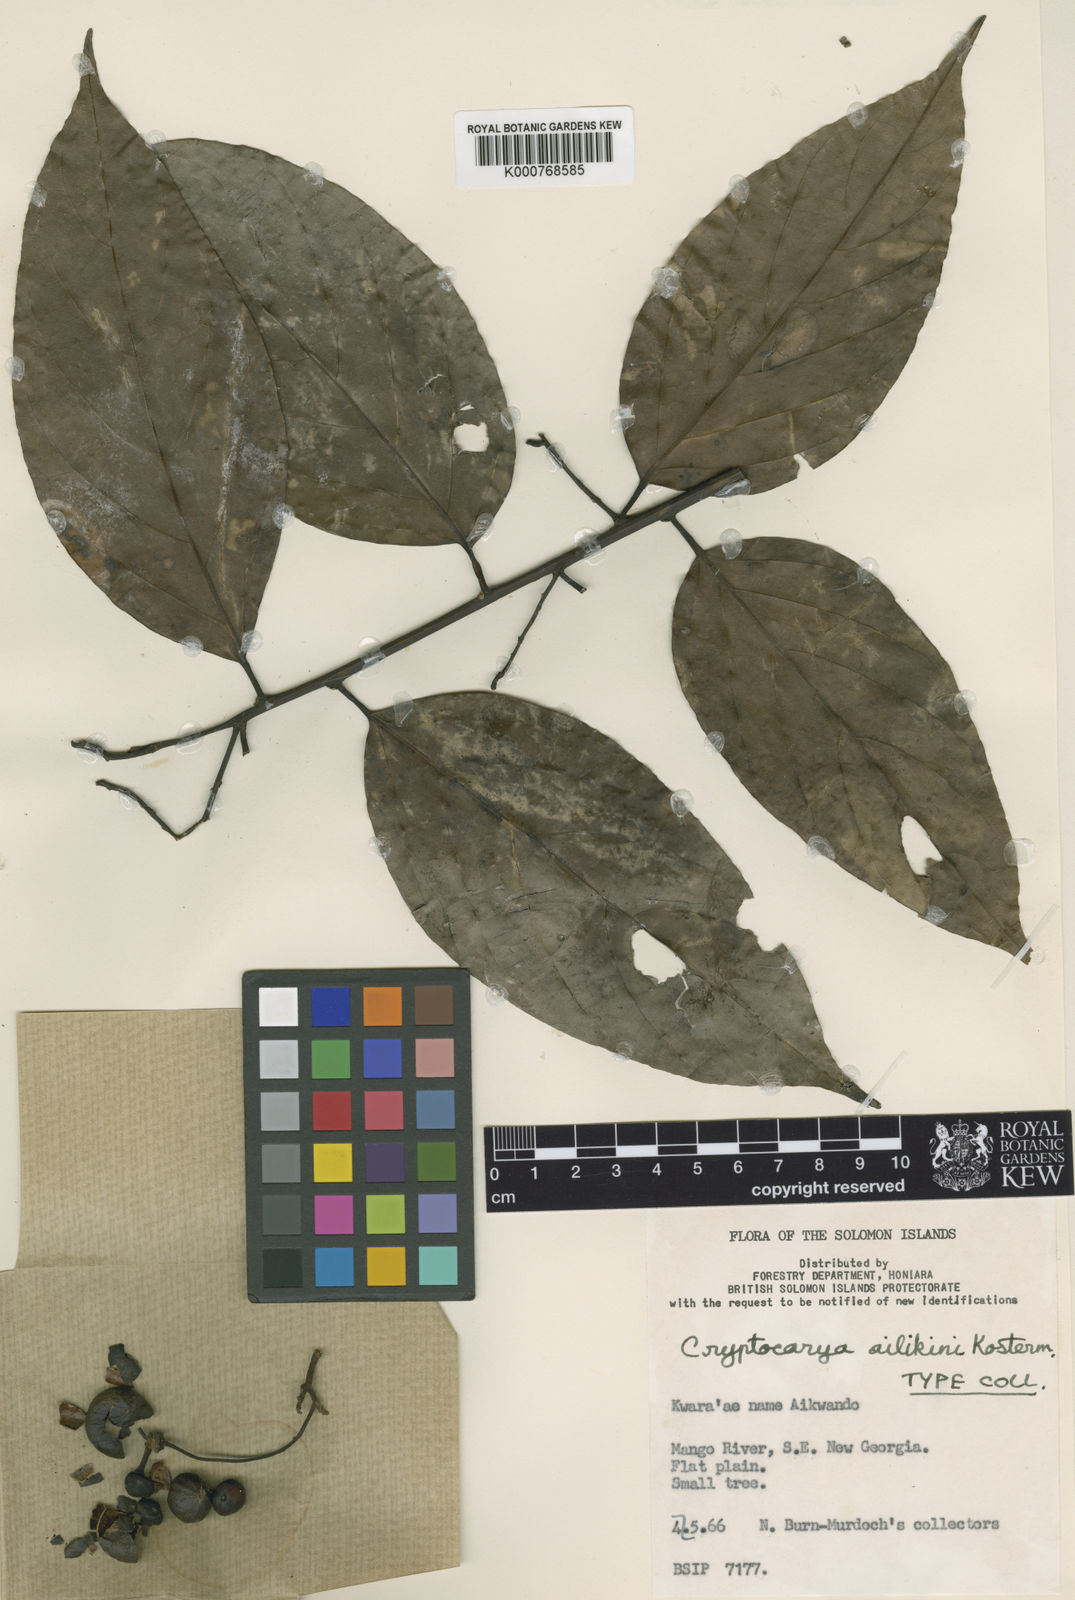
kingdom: Plantae
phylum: Tracheophyta
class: Magnoliopsida
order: Laurales
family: Lauraceae
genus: Cryptocarya
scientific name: Cryptocarya
